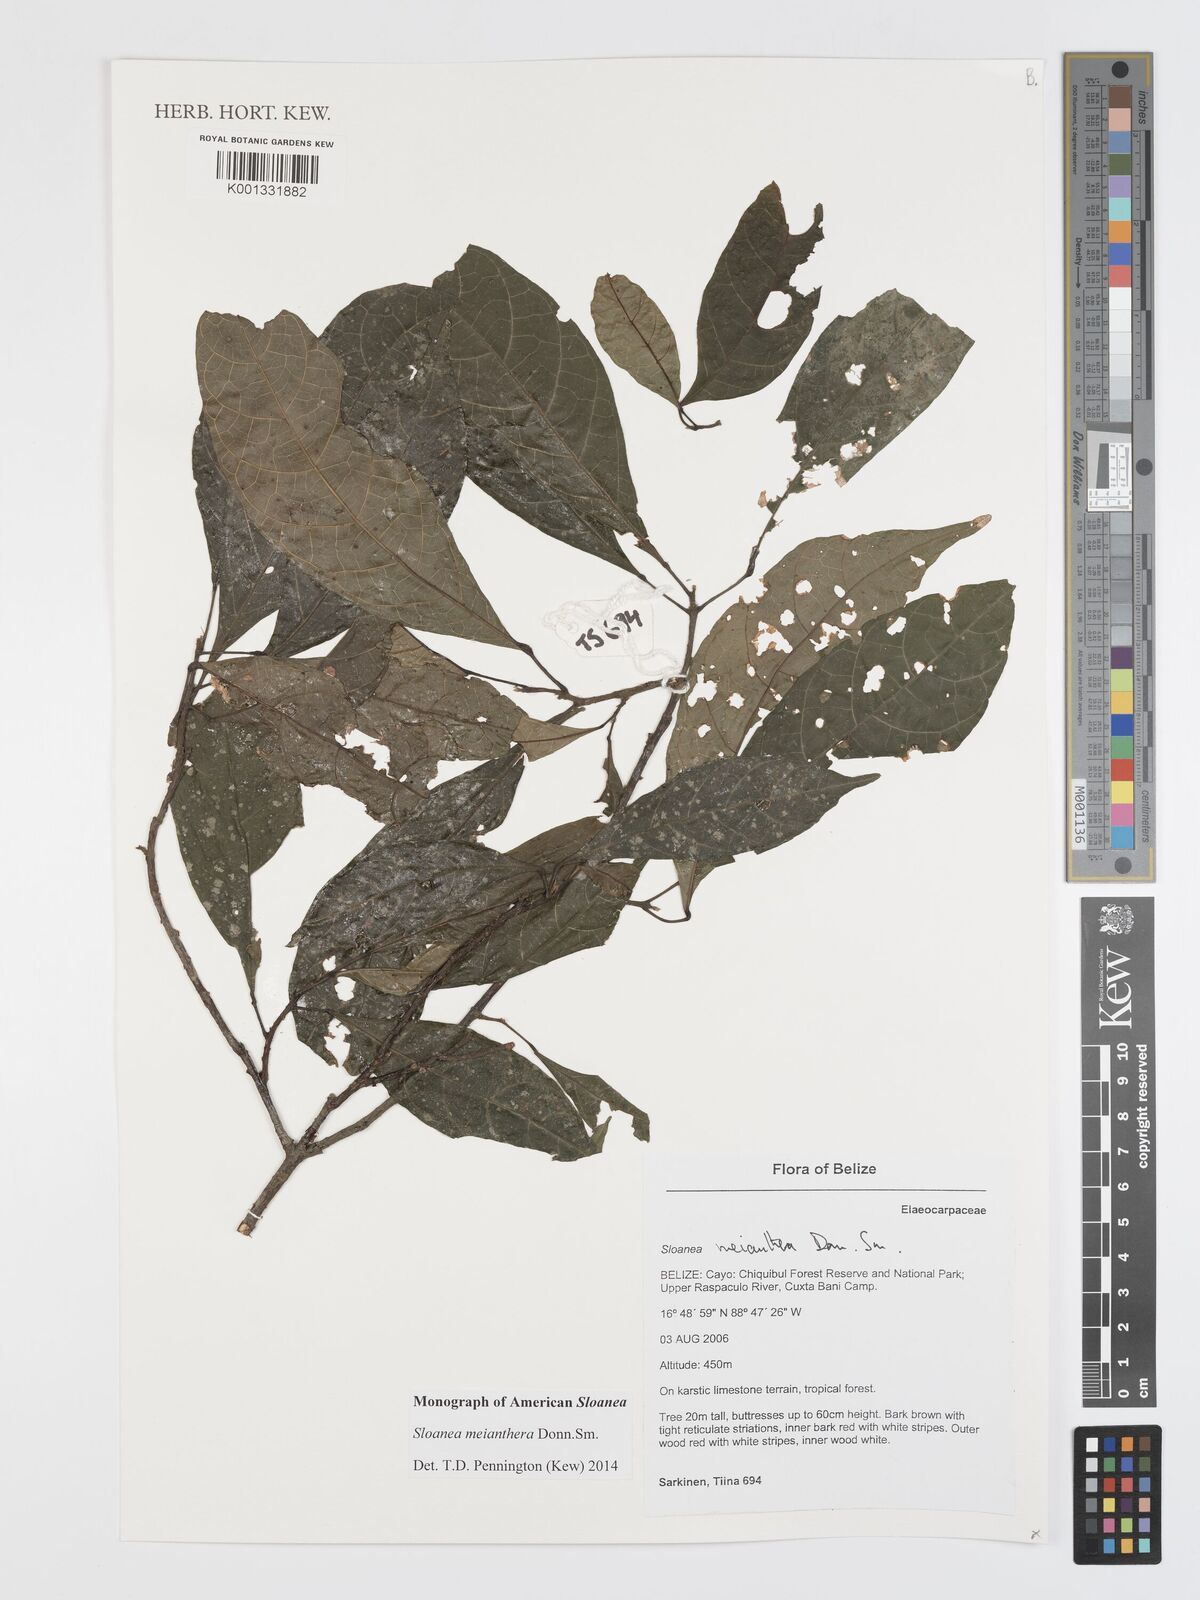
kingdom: Plantae
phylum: Tracheophyta
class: Magnoliopsida
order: Oxalidales
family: Elaeocarpaceae
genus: Sloanea
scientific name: Sloanea meianthera
